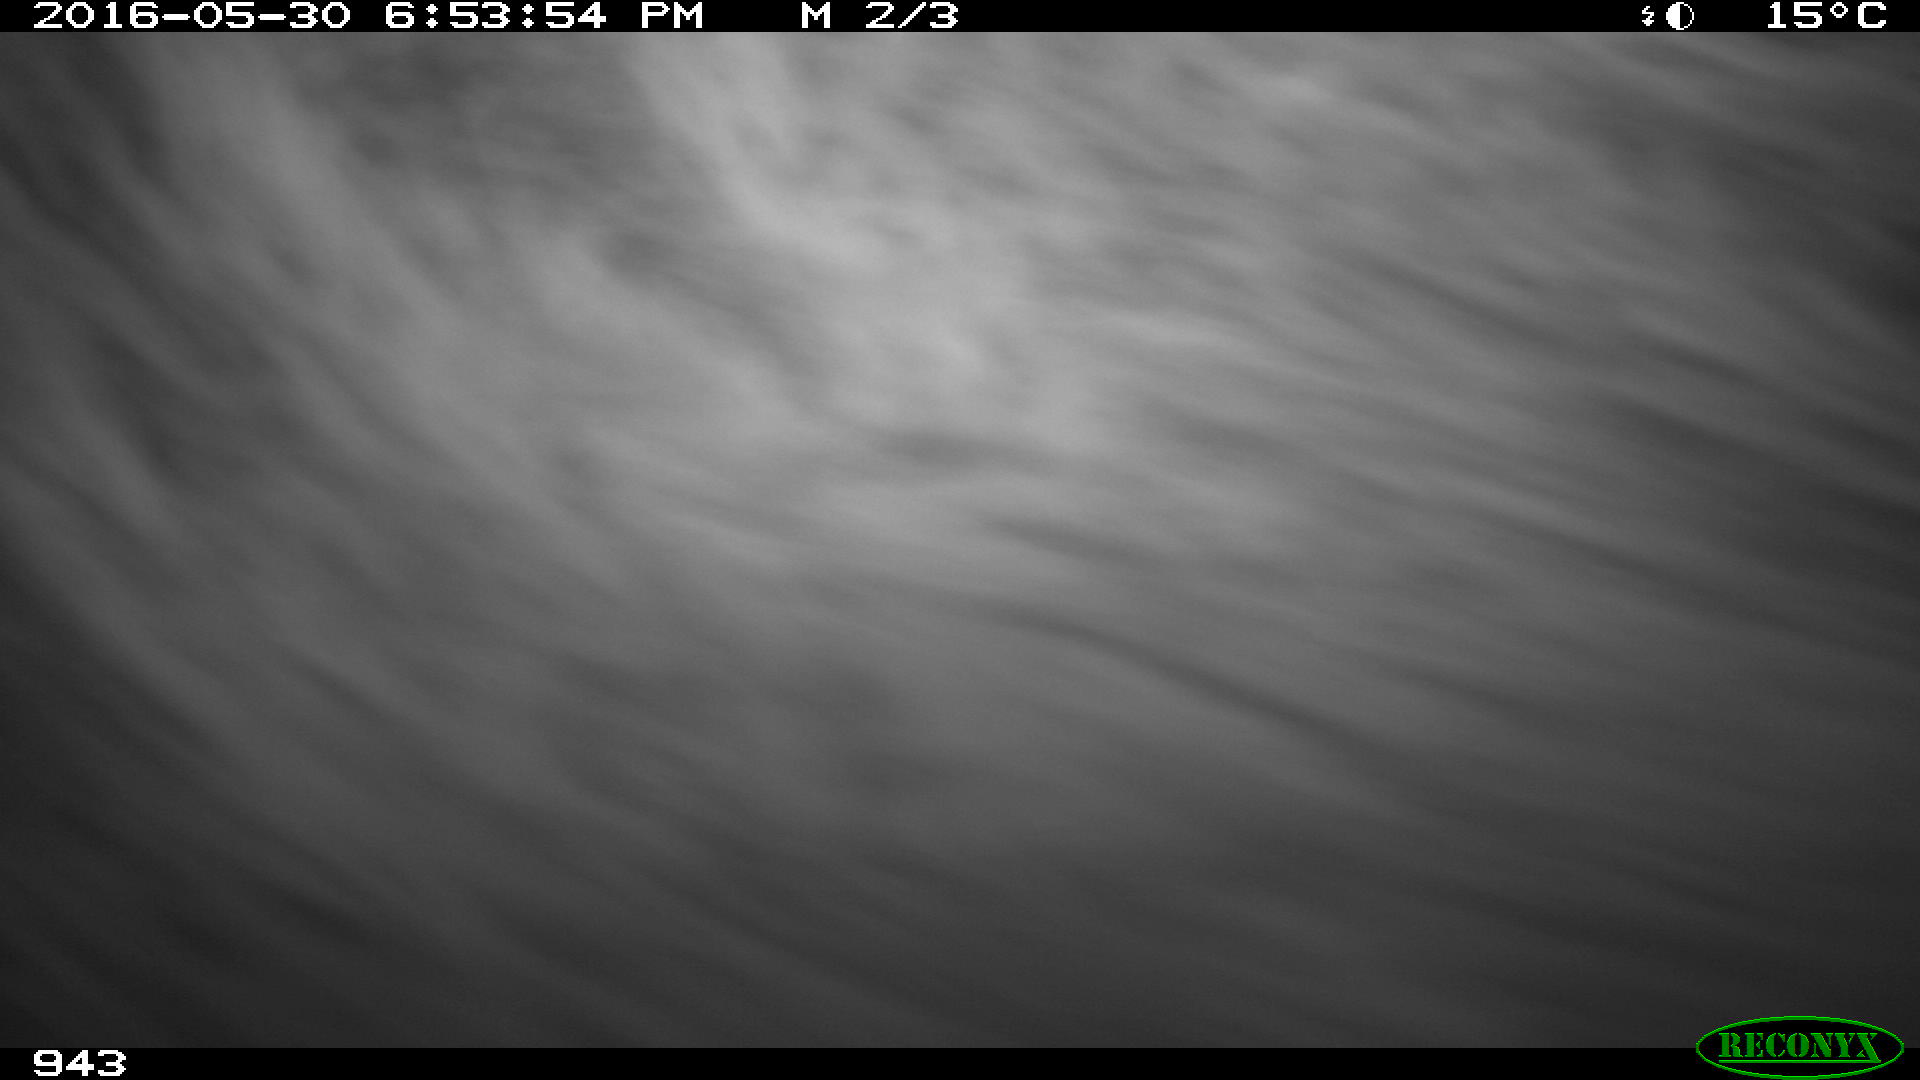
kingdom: Animalia
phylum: Chordata
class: Mammalia
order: Perissodactyla
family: Equidae
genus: Equus
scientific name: Equus caballus
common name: Horse
